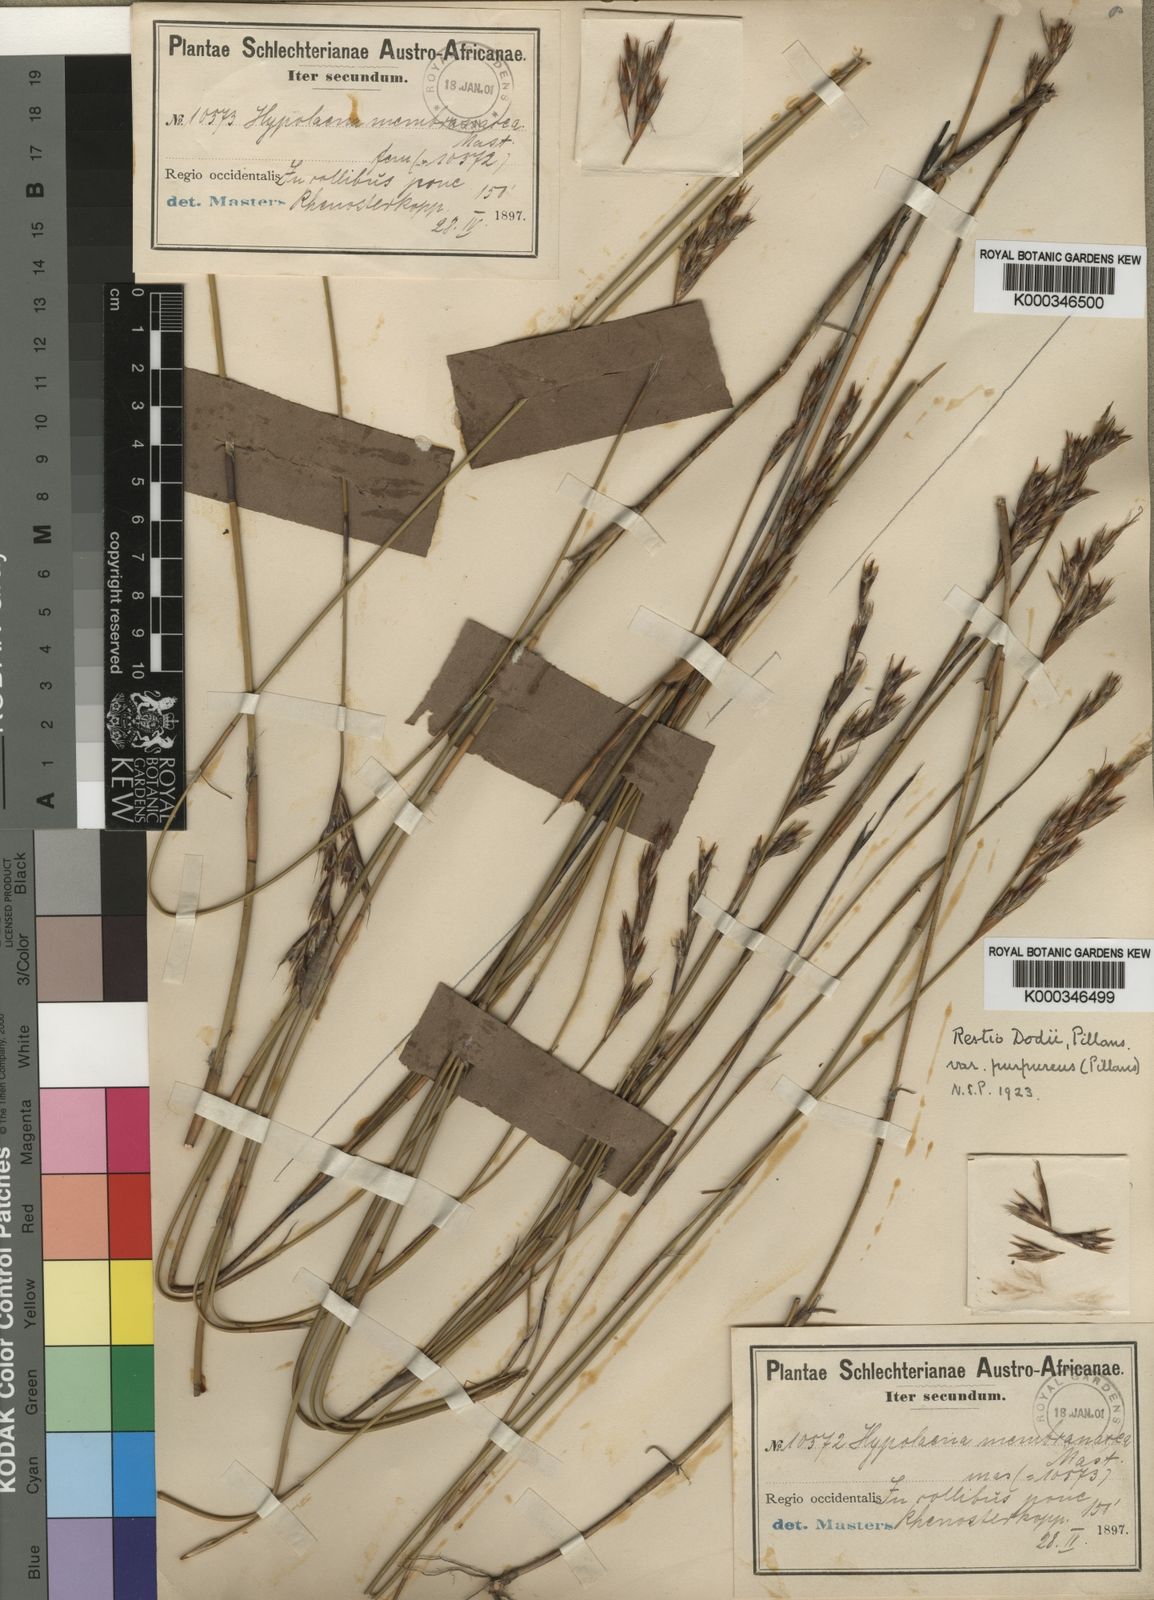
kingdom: Plantae
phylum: Tracheophyta
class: Liliopsida
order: Poales
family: Restionaceae
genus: Restio
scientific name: Restio dodii
